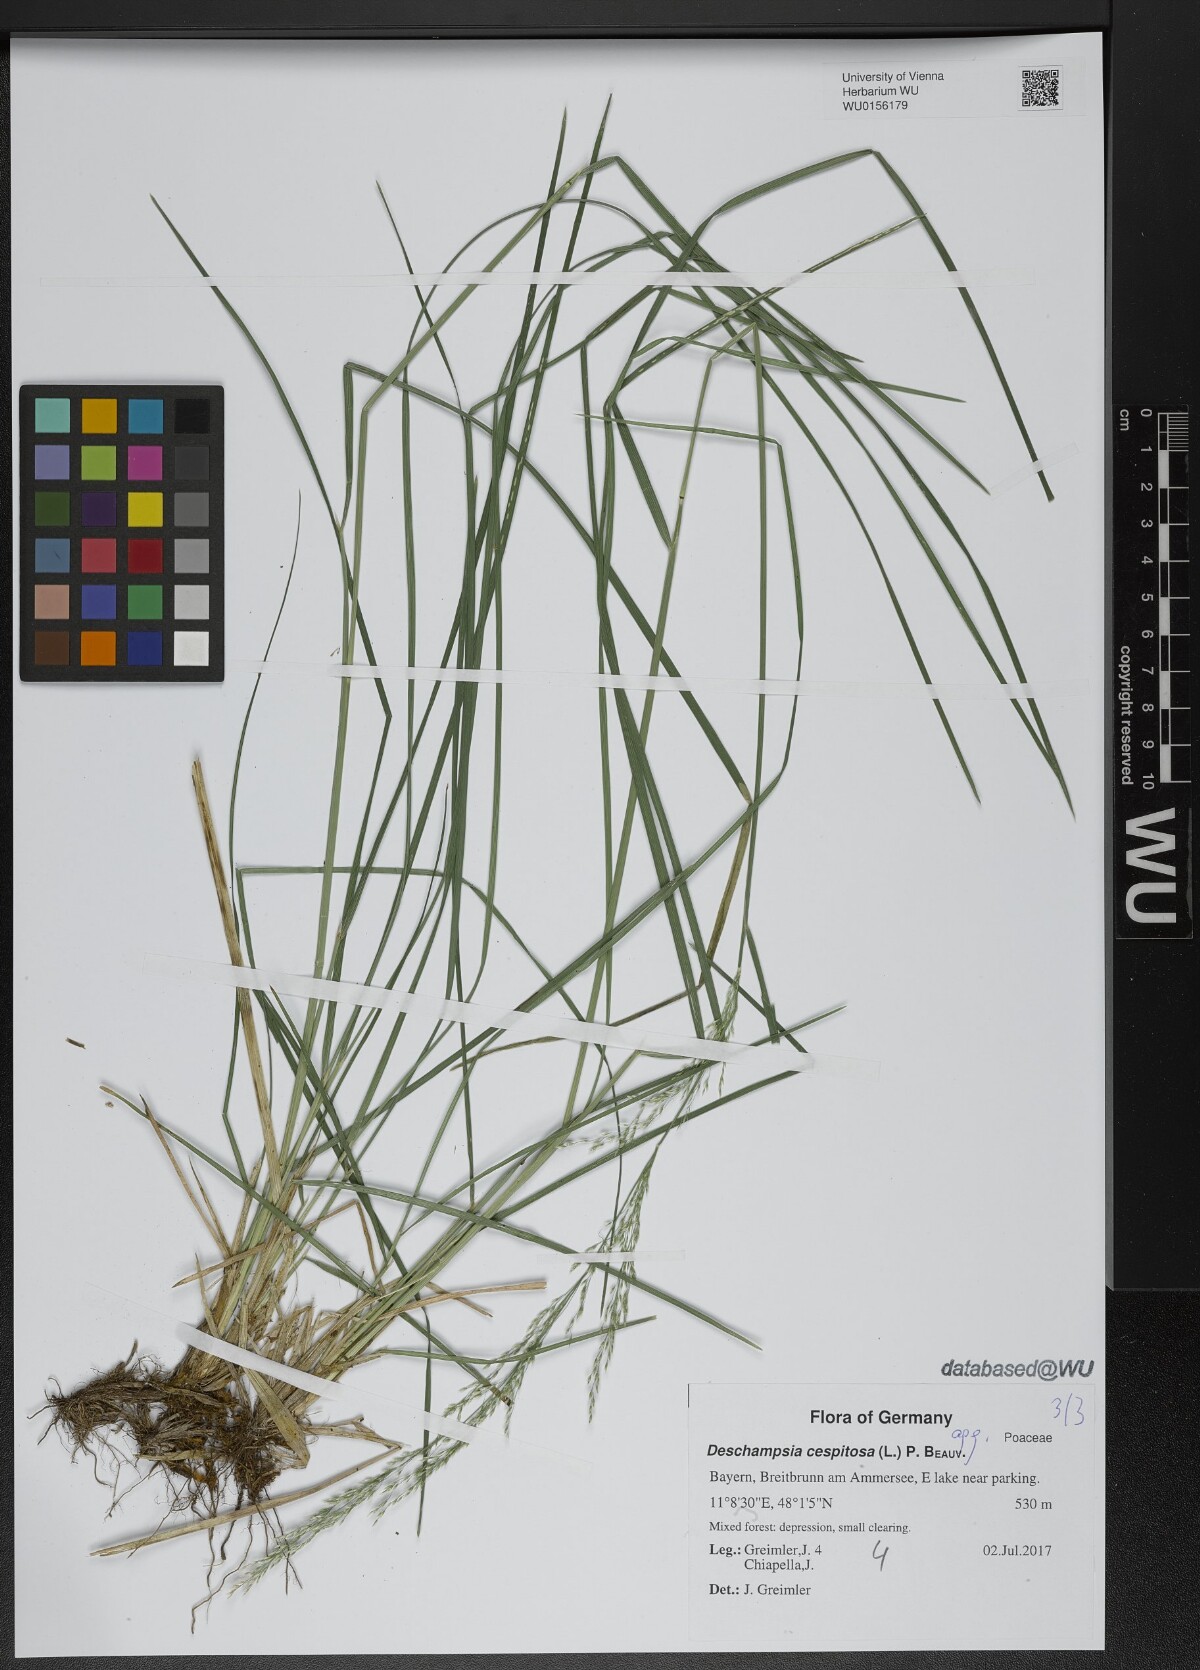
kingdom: Plantae
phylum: Tracheophyta
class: Liliopsida
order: Poales
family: Poaceae
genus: Deschampsia
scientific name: Deschampsia cespitosa
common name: Tufted hair-grass
